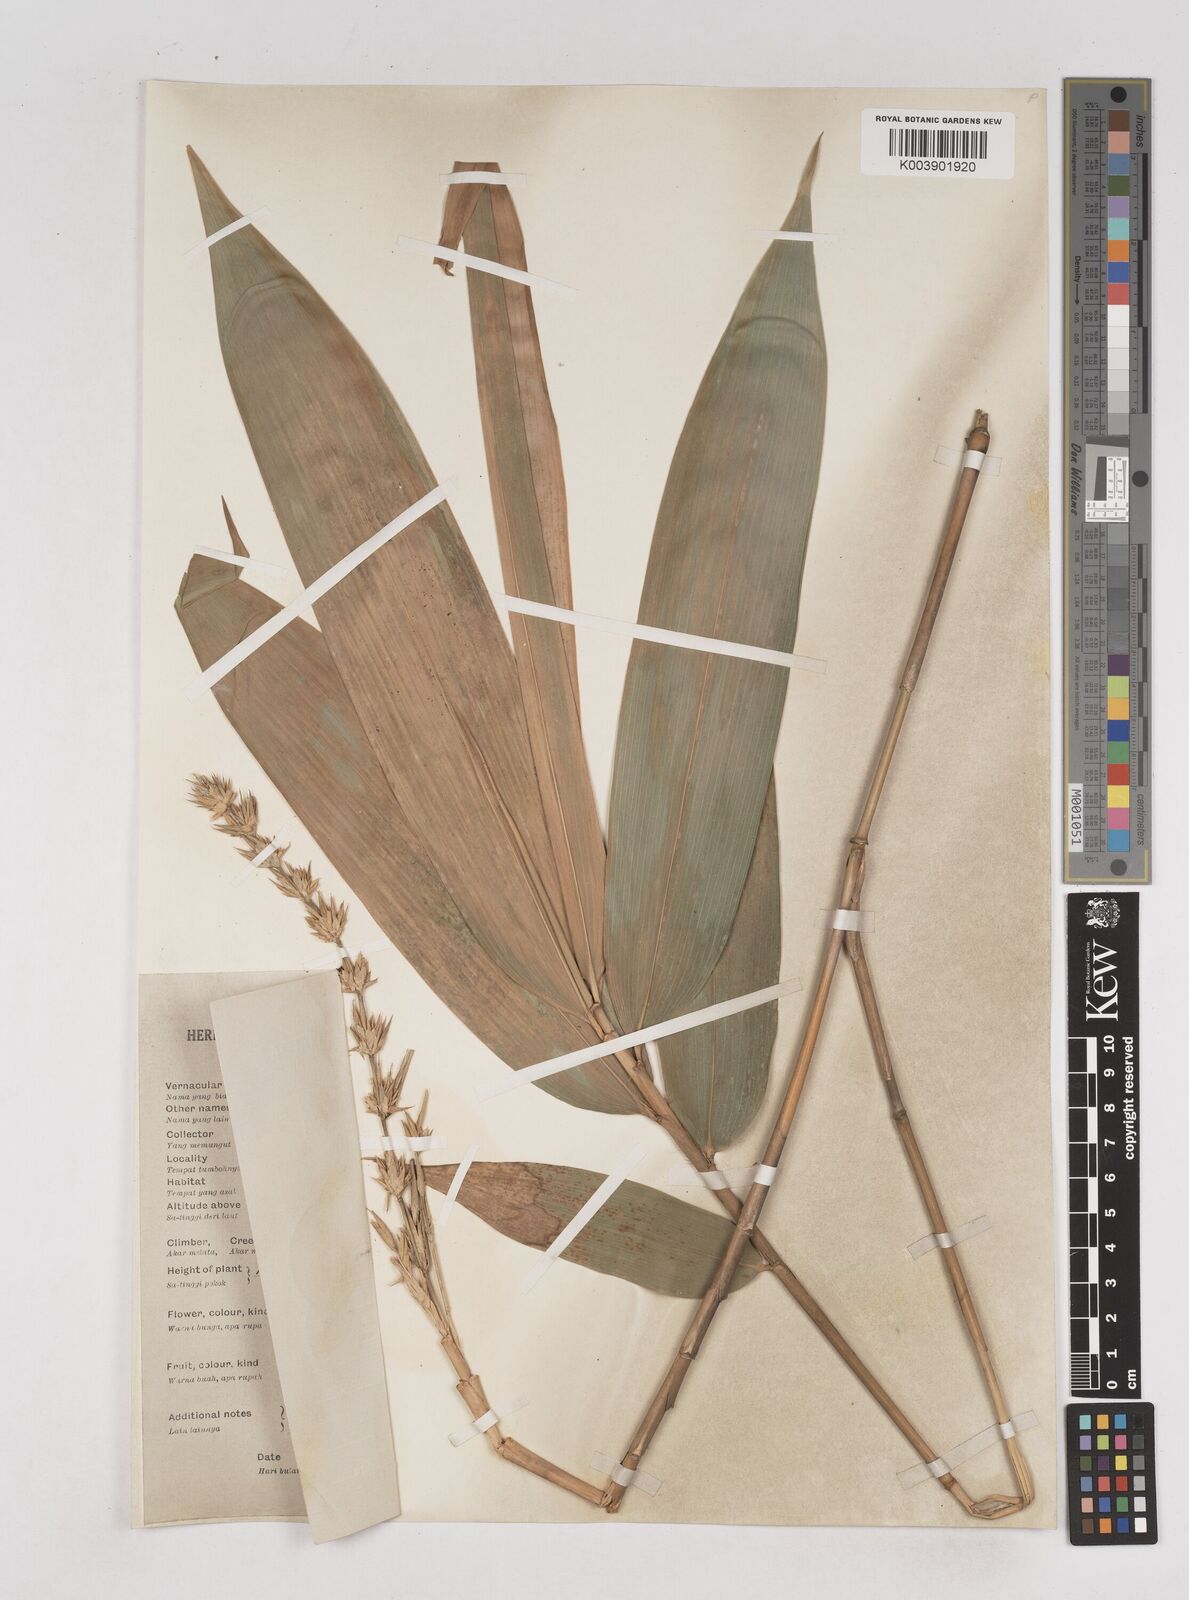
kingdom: Plantae
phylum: Tracheophyta
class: Liliopsida
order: Poales
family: Poaceae
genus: Schizostachyum
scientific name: Schizostachyum brachycladum
